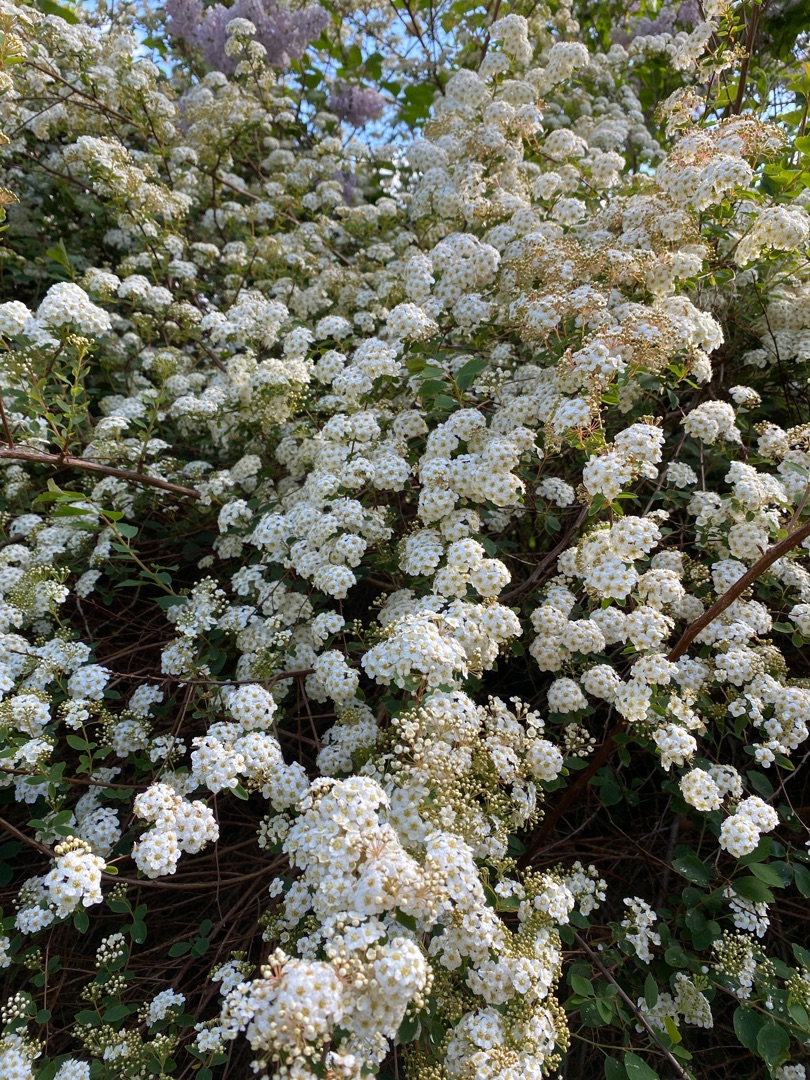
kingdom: Plantae
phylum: Tracheophyta
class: Magnoliopsida
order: Rosales
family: Rosaceae
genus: Spiraea
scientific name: Spiraea
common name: Spiræaslægten
